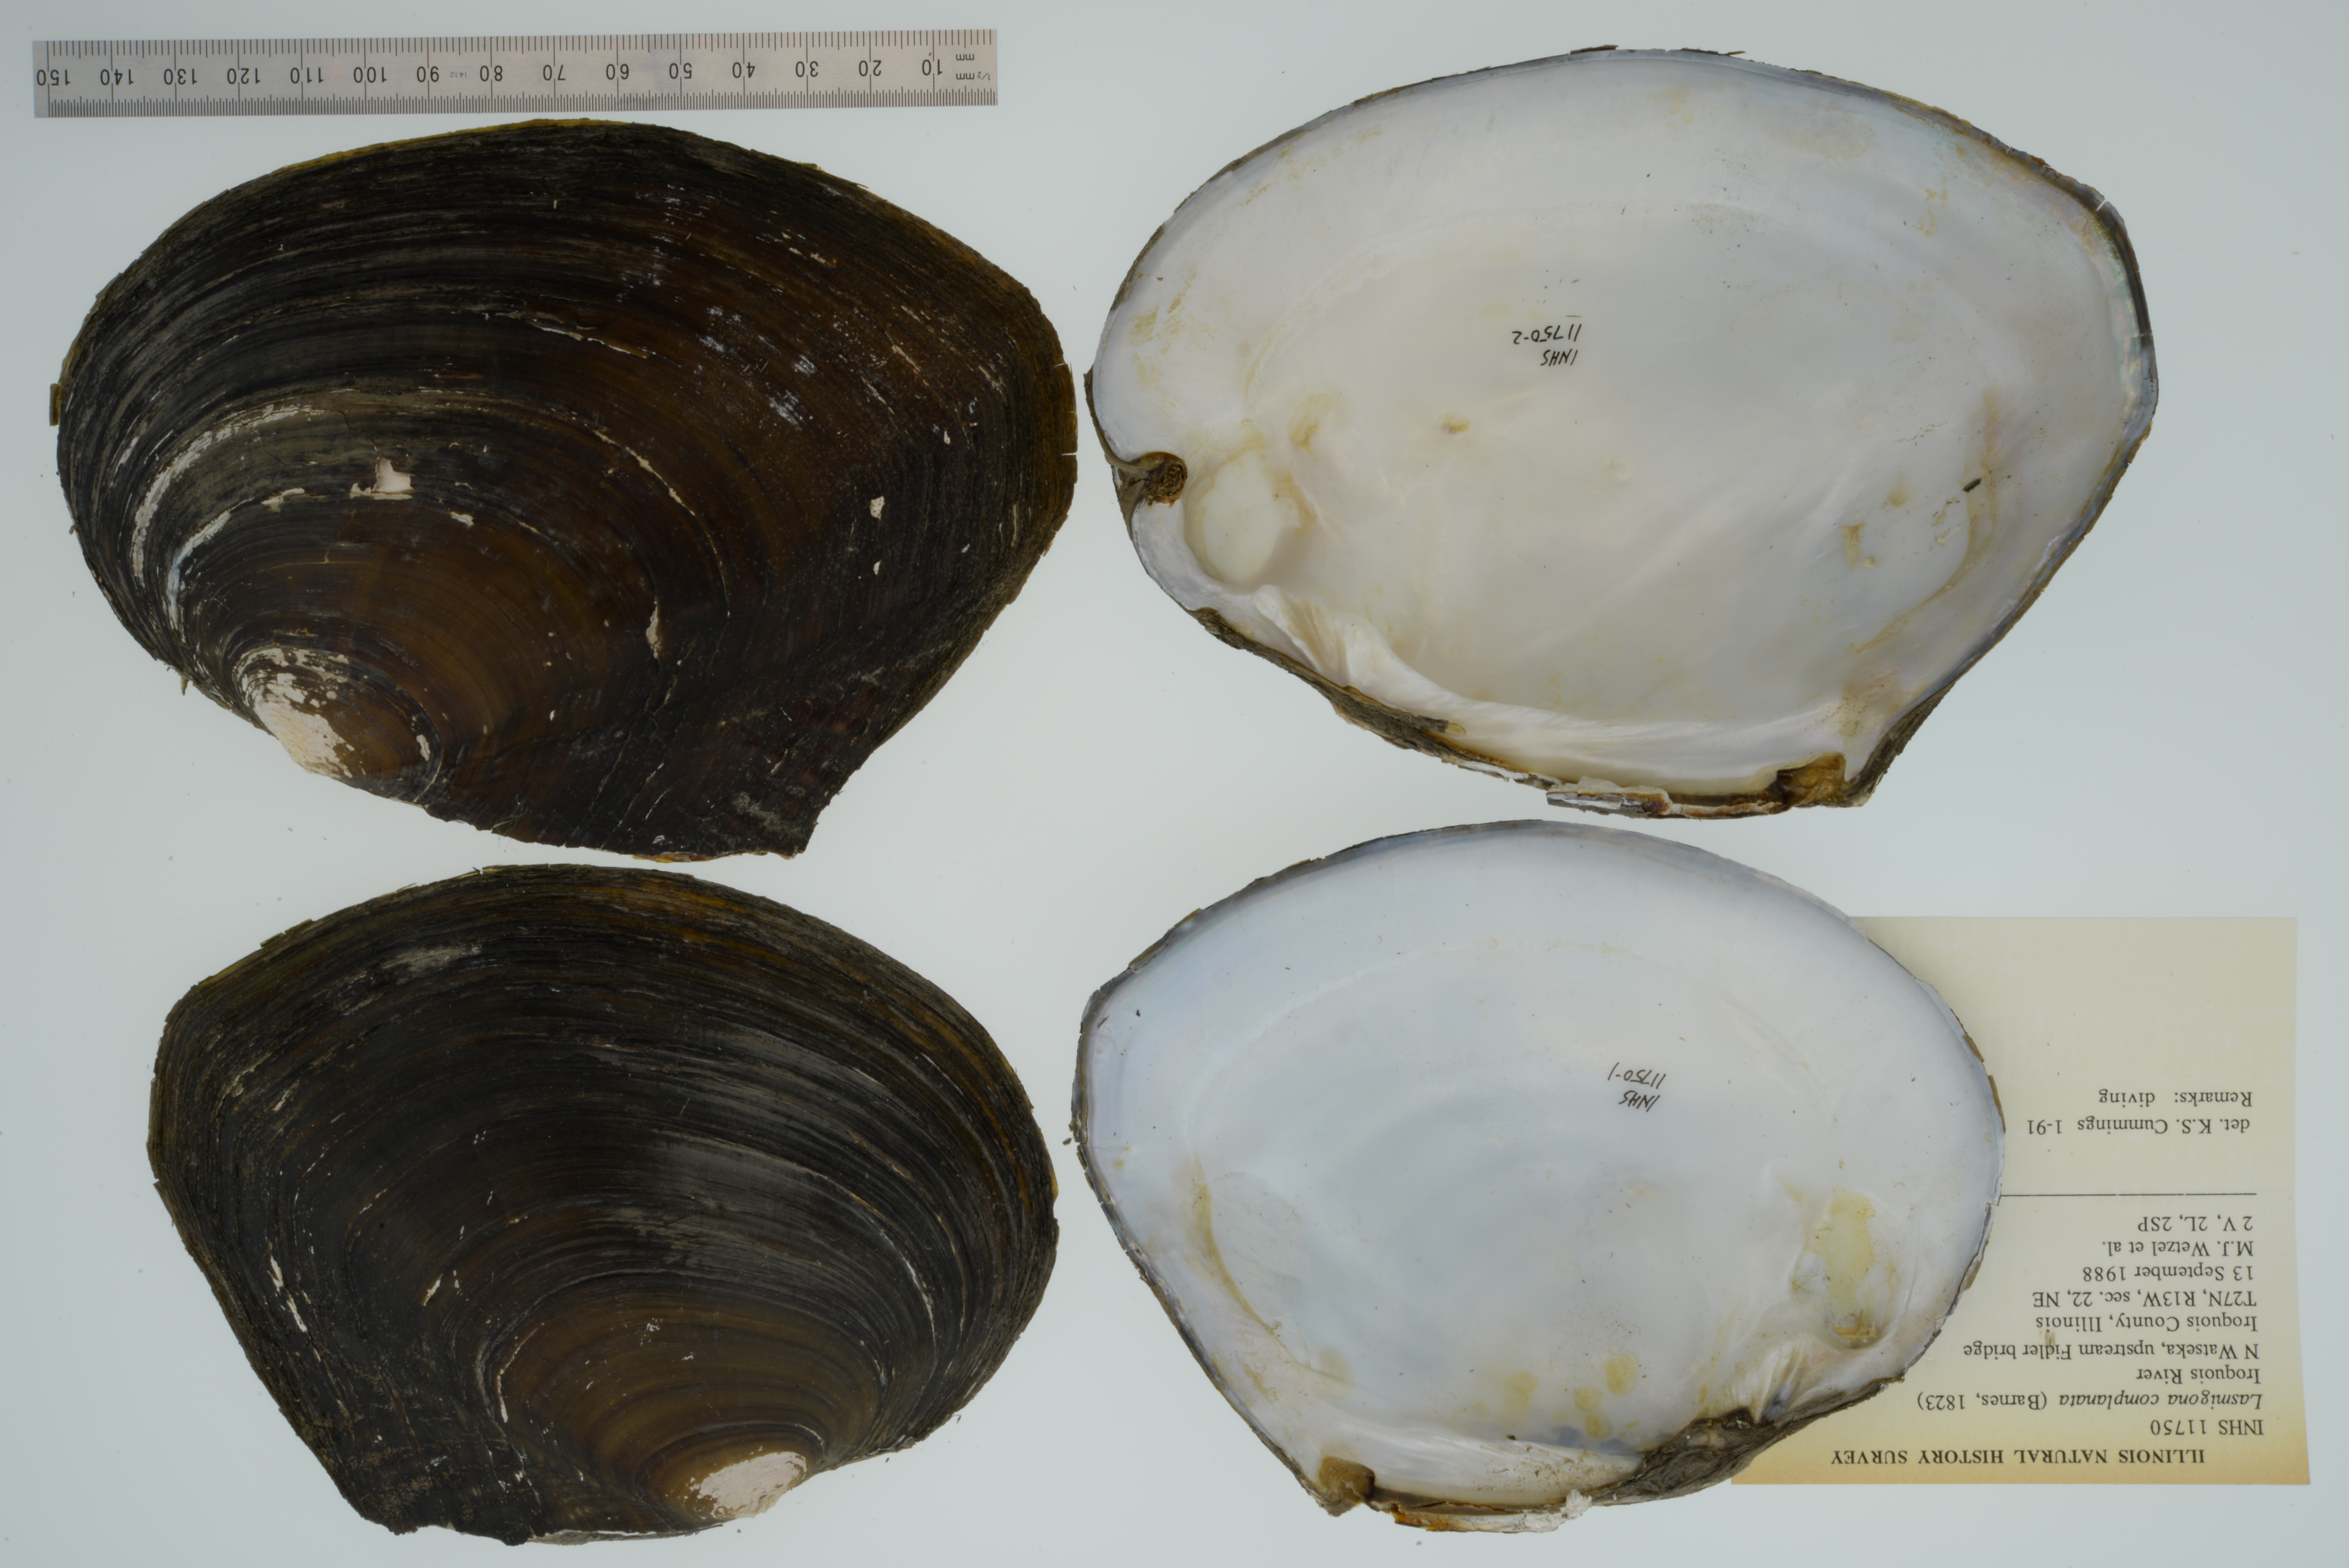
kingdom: Animalia
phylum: Mollusca
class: Bivalvia
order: Unionida
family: Unionidae
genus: Lasmigona
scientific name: Lasmigona complanata
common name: White heelsplitter
